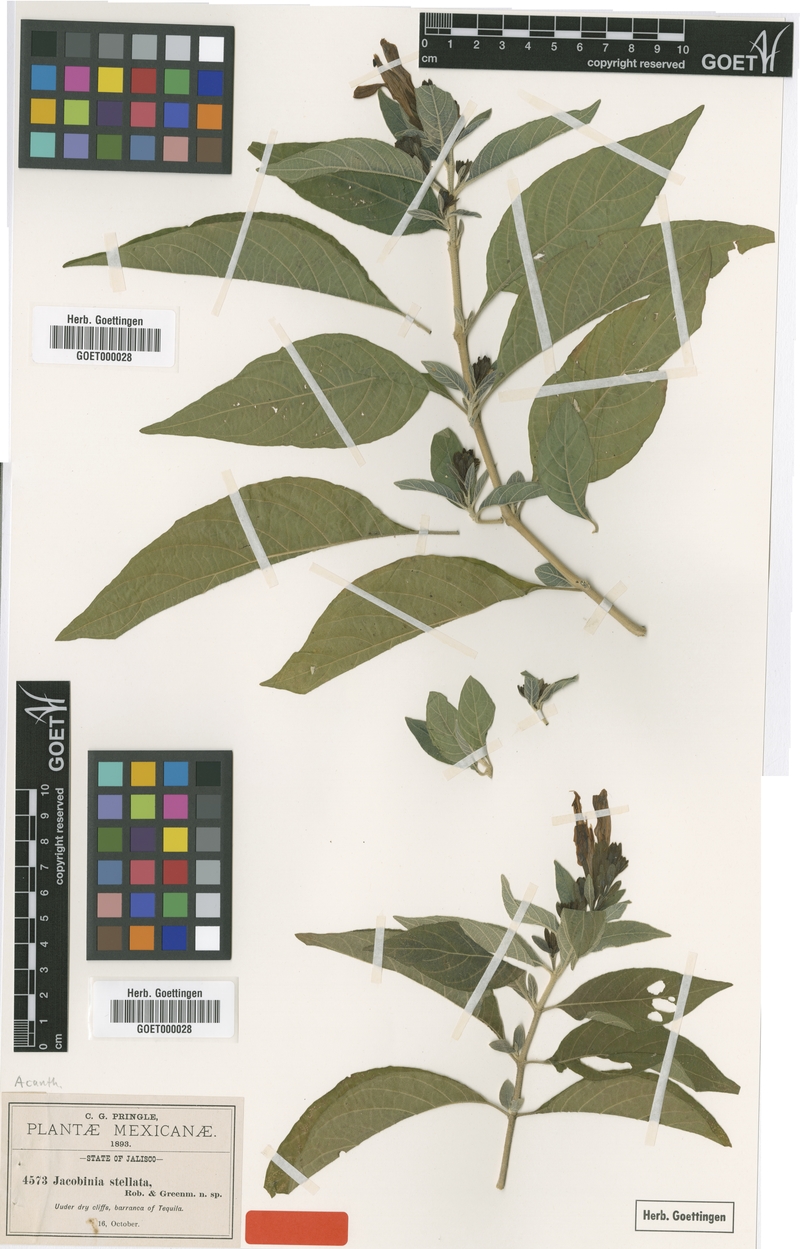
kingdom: Plantae
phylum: Tracheophyta
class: Magnoliopsida
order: Lamiales
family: Acanthaceae
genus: Justicia
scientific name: Justicia stellata
